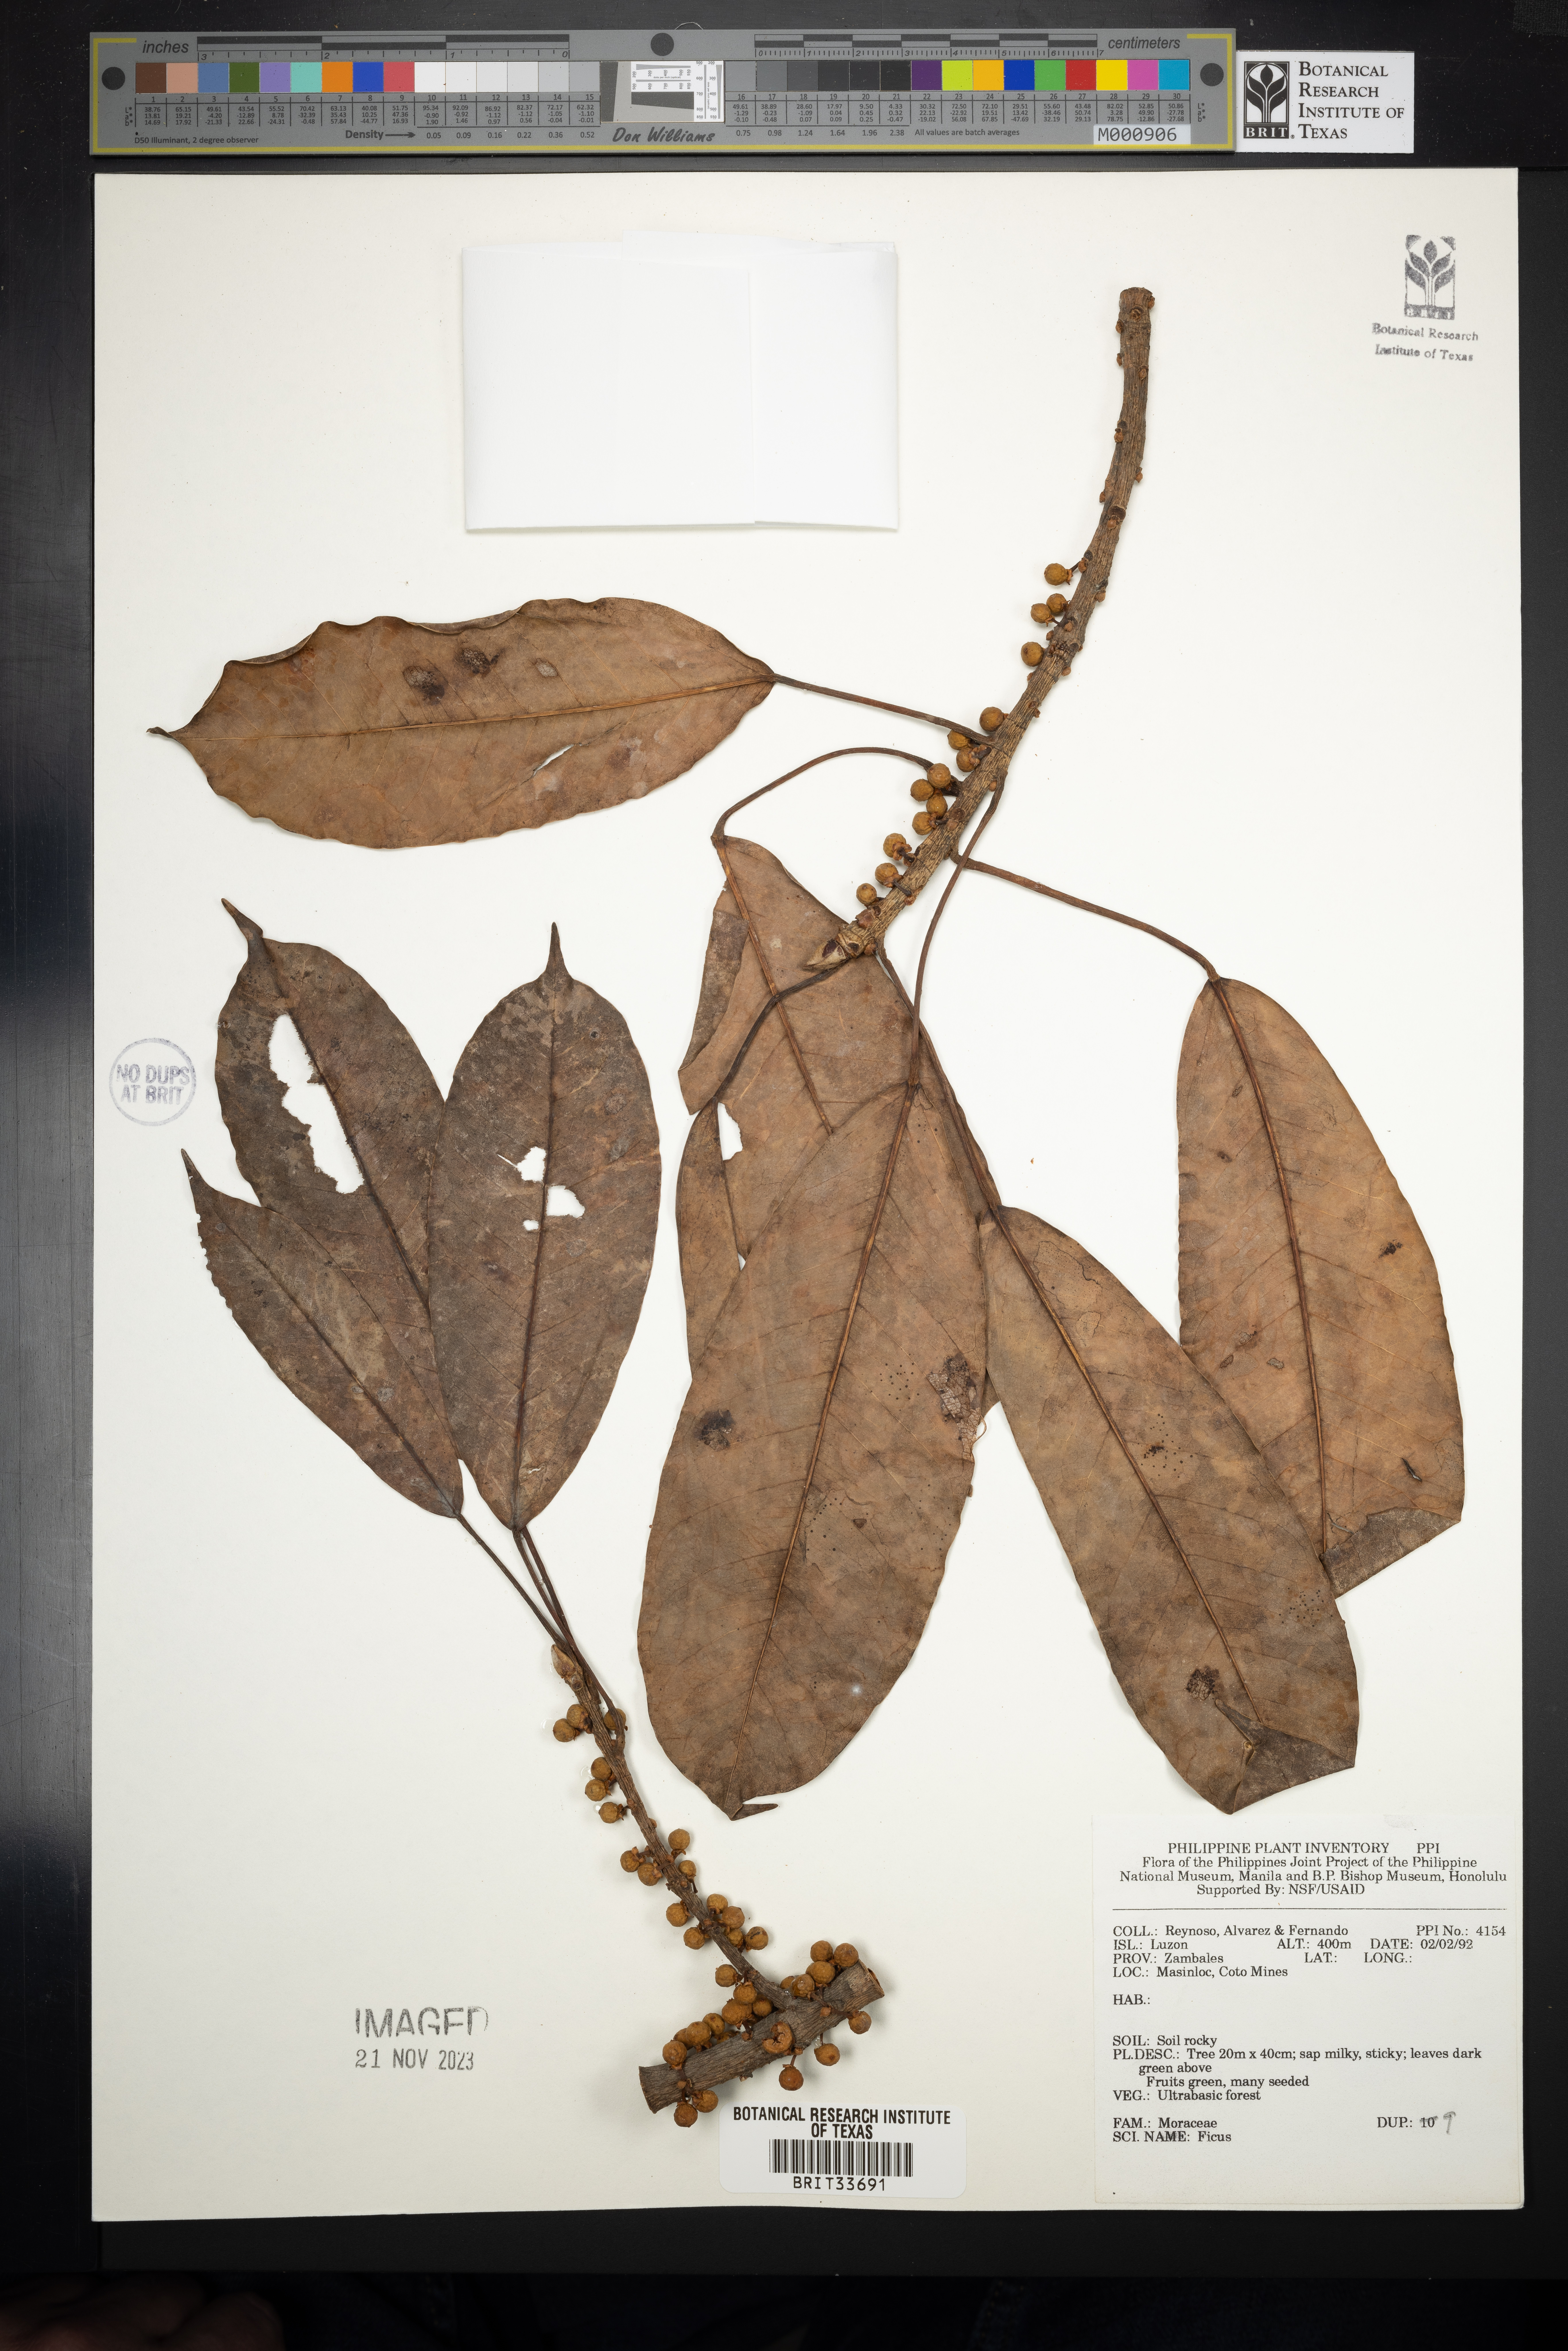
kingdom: Plantae
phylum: Tracheophyta
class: Magnoliopsida
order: Rosales
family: Moraceae
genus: Ficus
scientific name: Ficus
